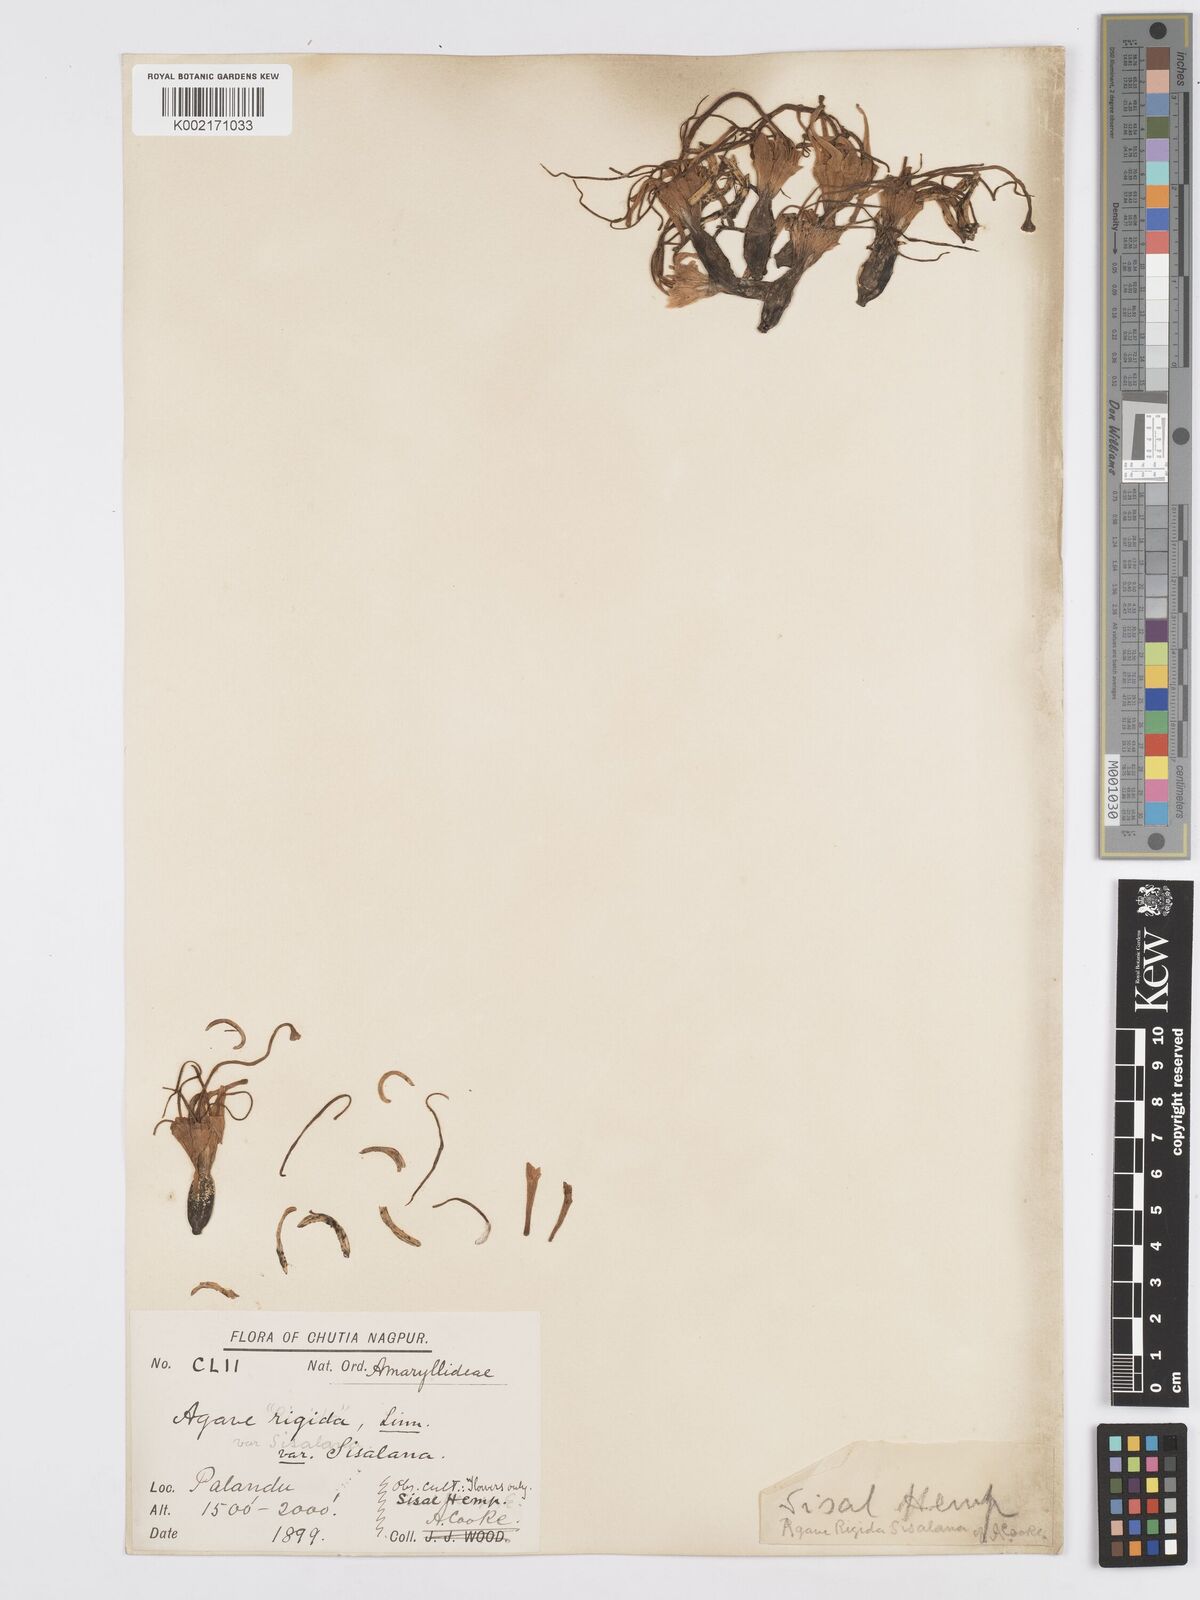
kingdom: Plantae
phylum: Tracheophyta
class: Liliopsida
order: Asparagales
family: Asparagaceae
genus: Agave
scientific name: Agave americana
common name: Centuryplant
